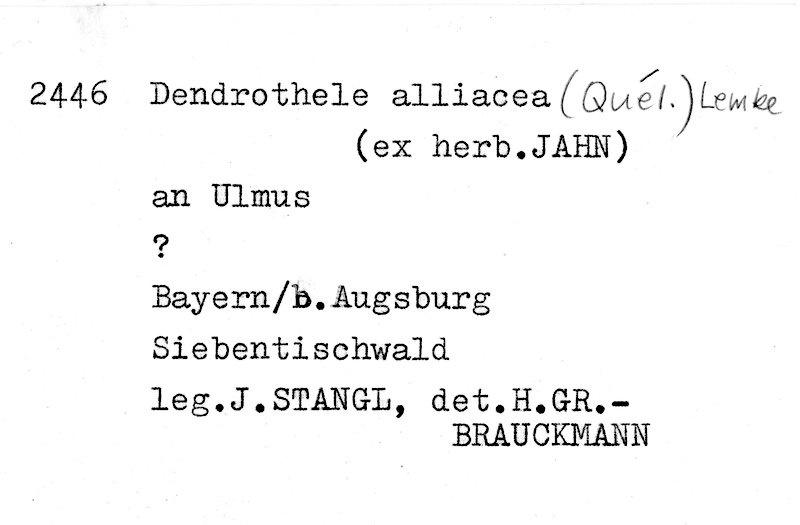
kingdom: Fungi
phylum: Basidiomycota
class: Agaricomycetes
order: Agaricales
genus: Dendrothele
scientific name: Dendrothele alliacea
